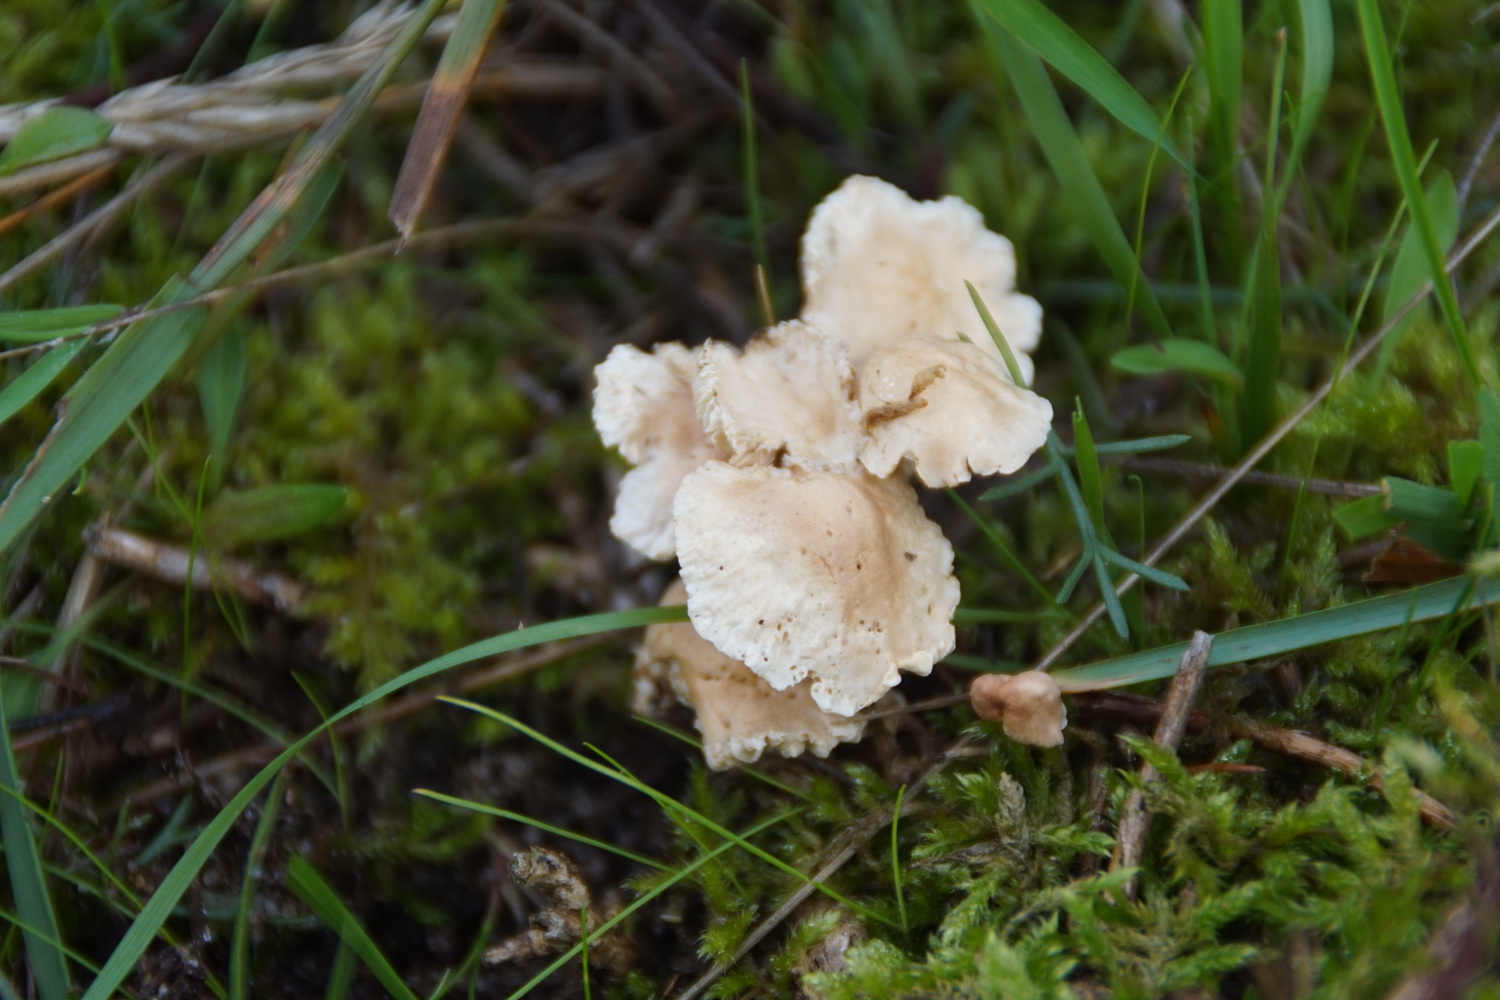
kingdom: Fungi
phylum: Basidiomycota
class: Agaricomycetes
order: Agaricales
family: Omphalotaceae
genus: Mycetinis
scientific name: Mycetinis scorodonius
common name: lille løghat
